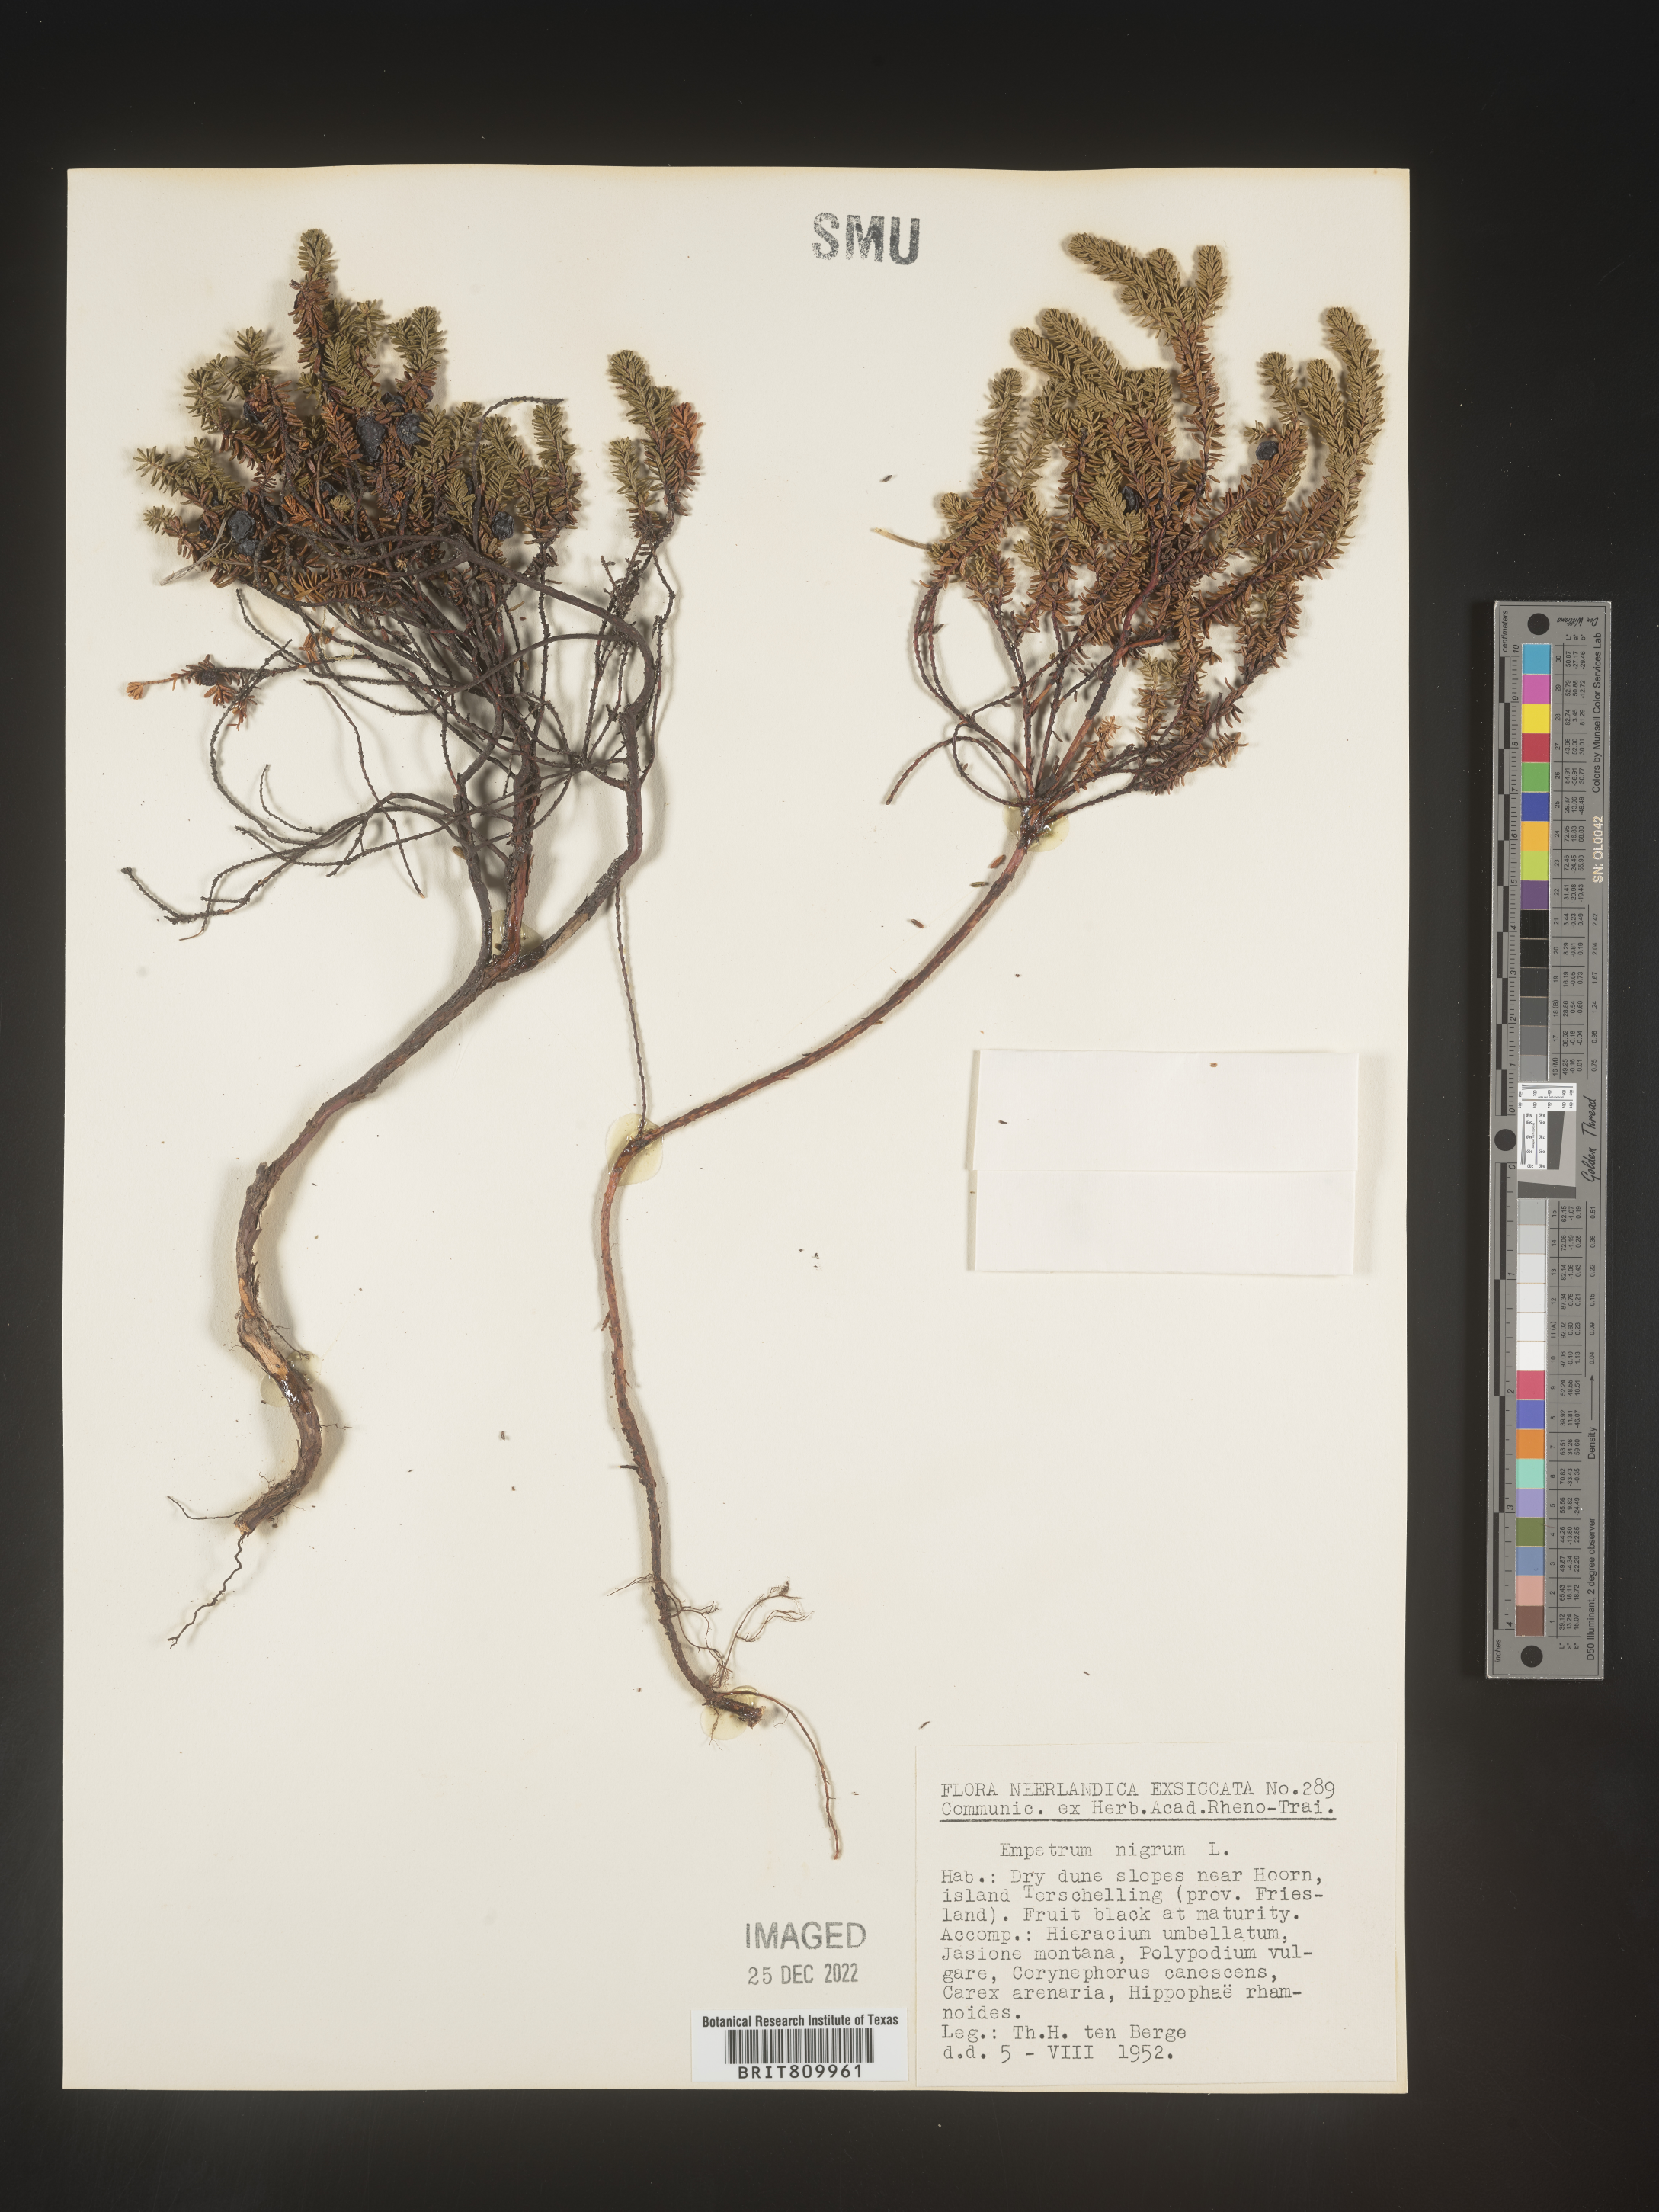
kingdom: Plantae
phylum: Tracheophyta
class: Magnoliopsida
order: Ericales
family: Ericaceae
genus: Empetrum
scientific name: Empetrum
